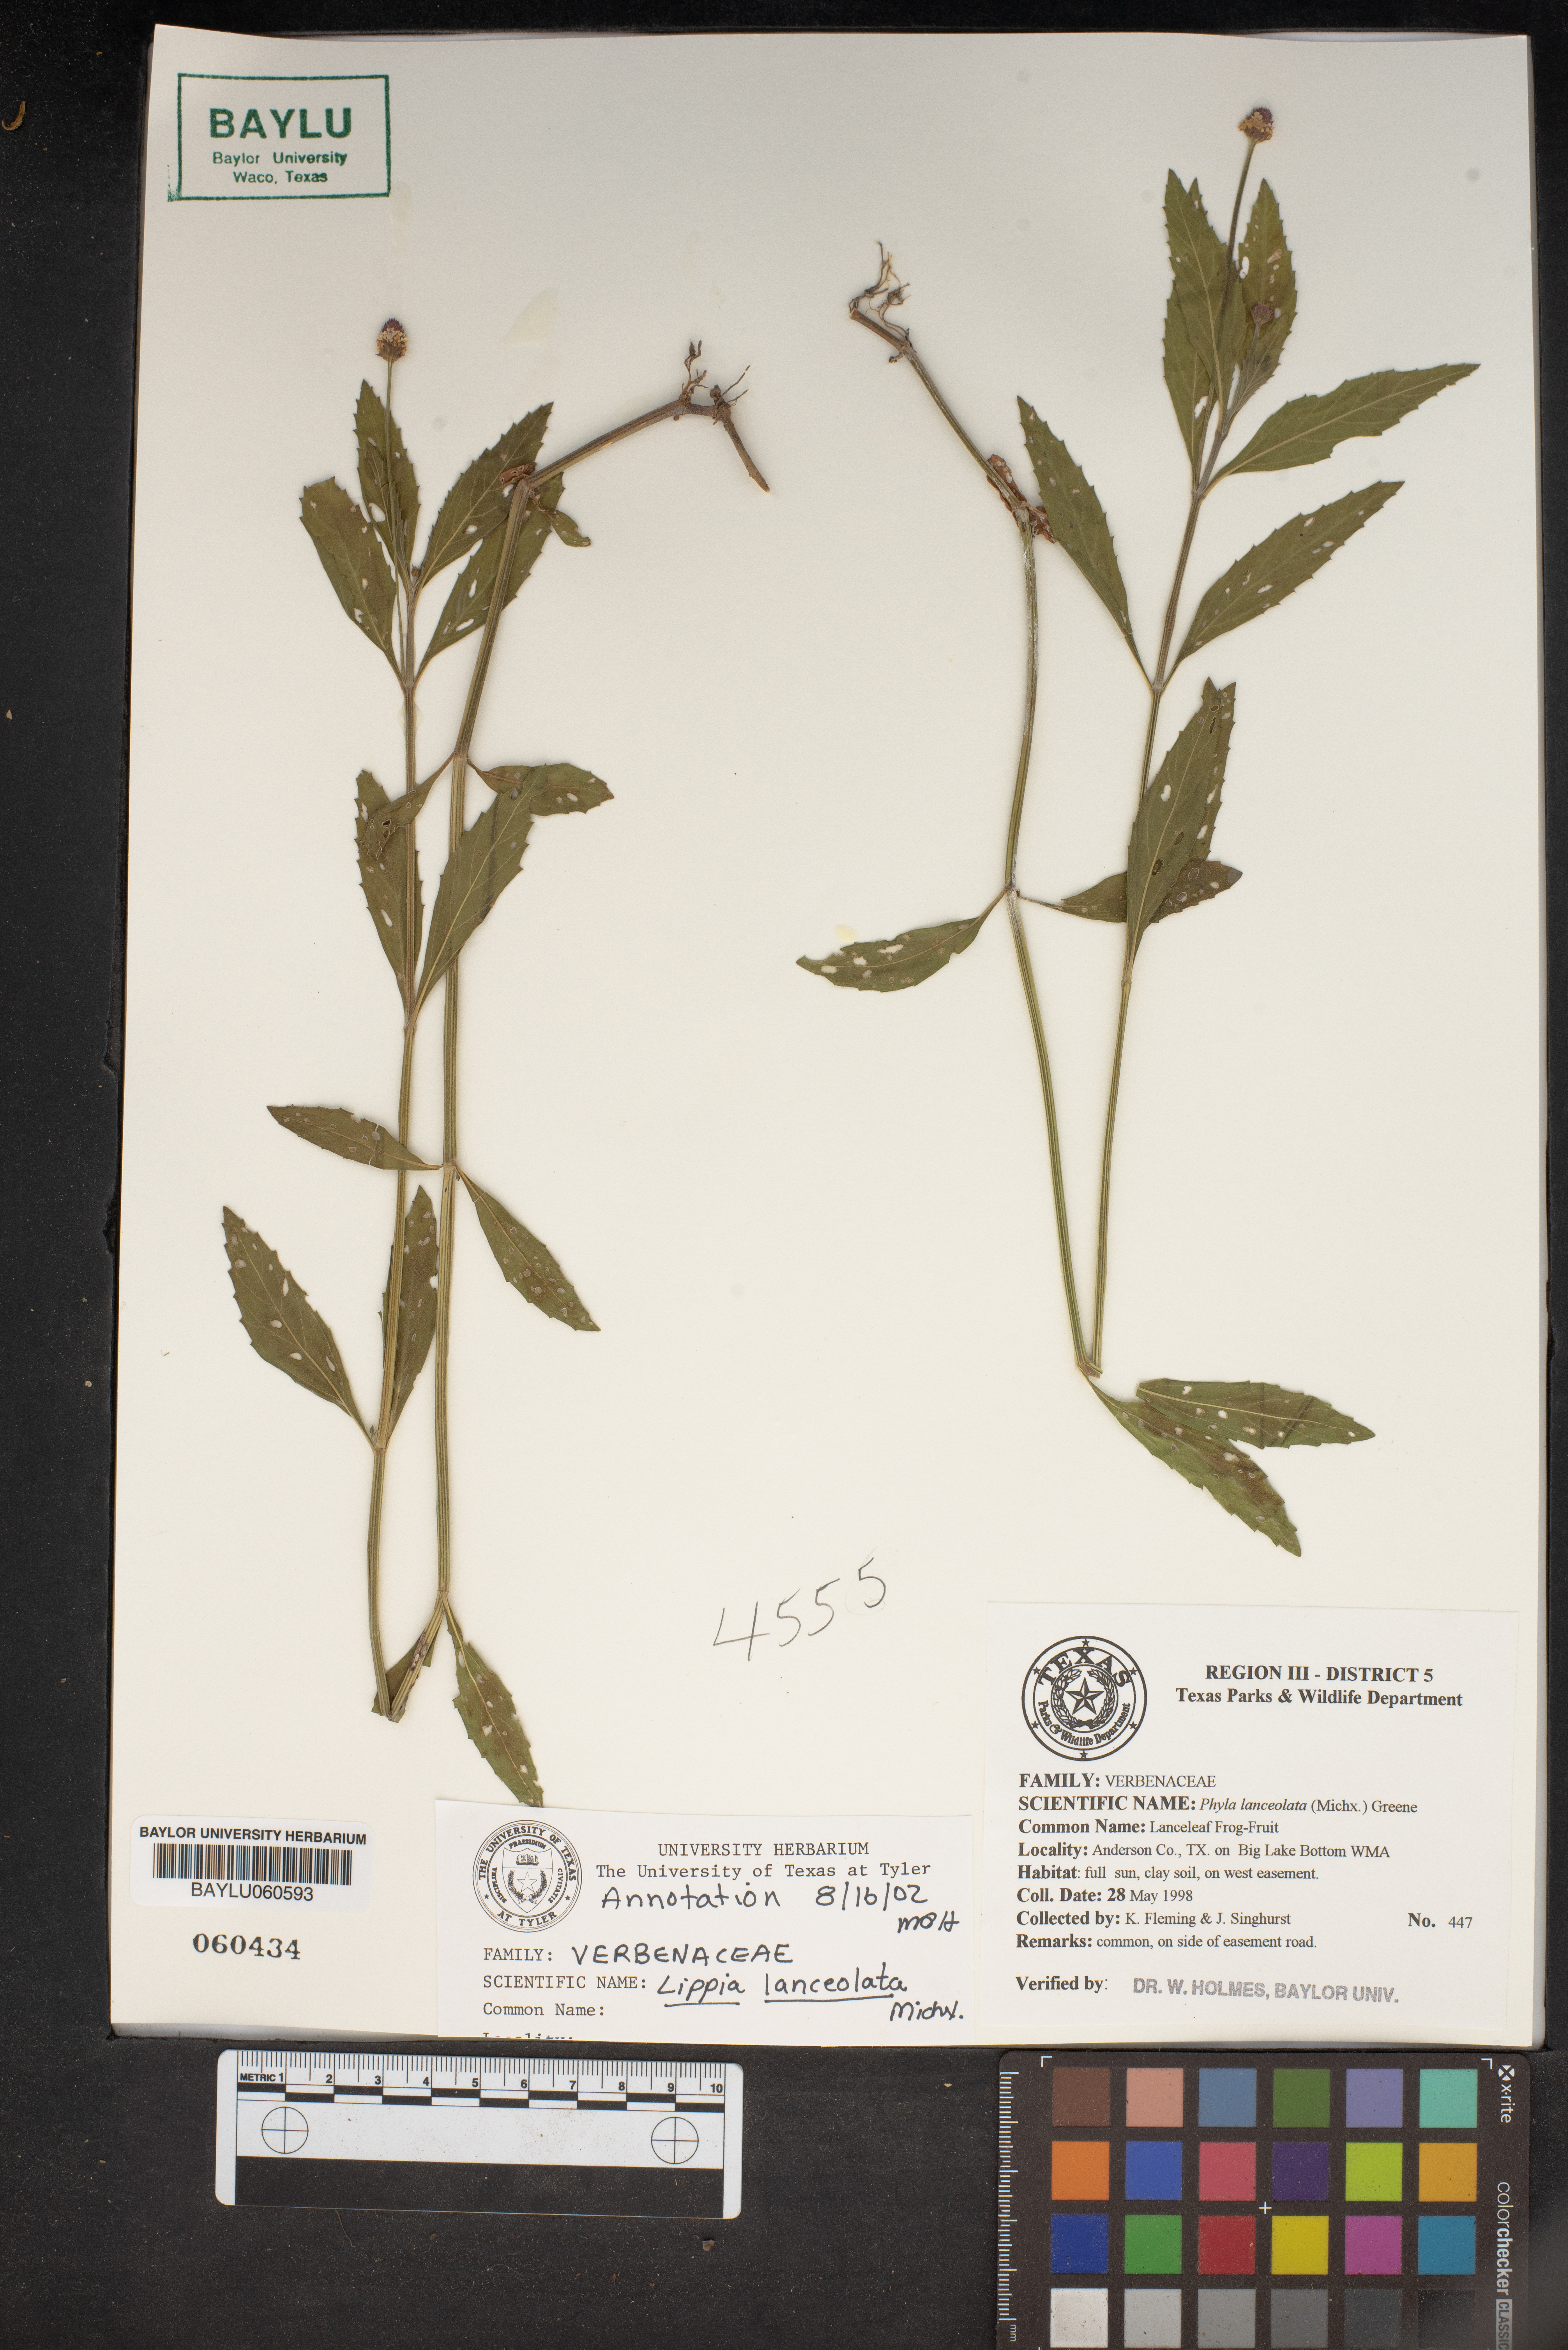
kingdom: Plantae
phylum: Tracheophyta
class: Magnoliopsida
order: Lamiales
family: Verbenaceae
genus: Phyla
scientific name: Phyla lanceolata
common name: Northern fogfruit
